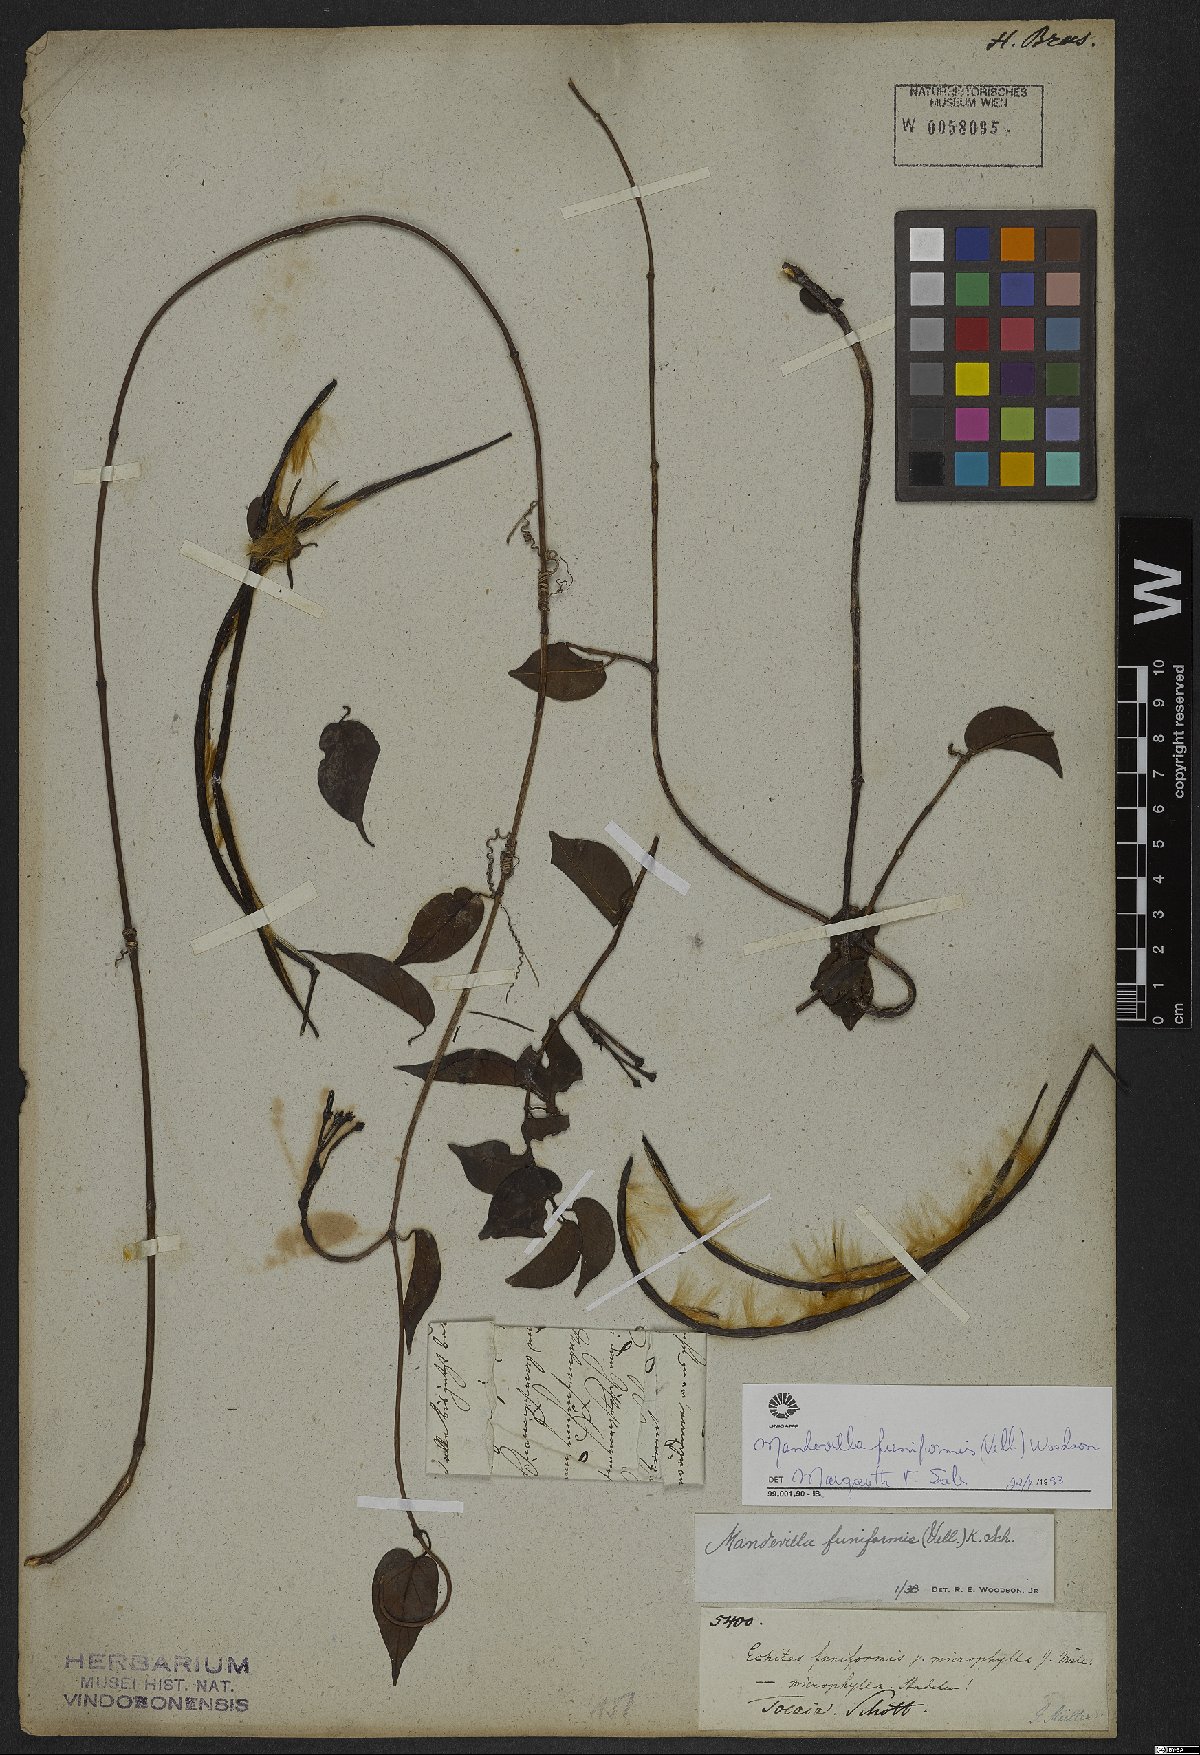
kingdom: Plantae
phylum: Tracheophyta
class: Magnoliopsida
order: Gentianales
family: Apocynaceae
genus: Mandevilla
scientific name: Mandevilla funiformis
